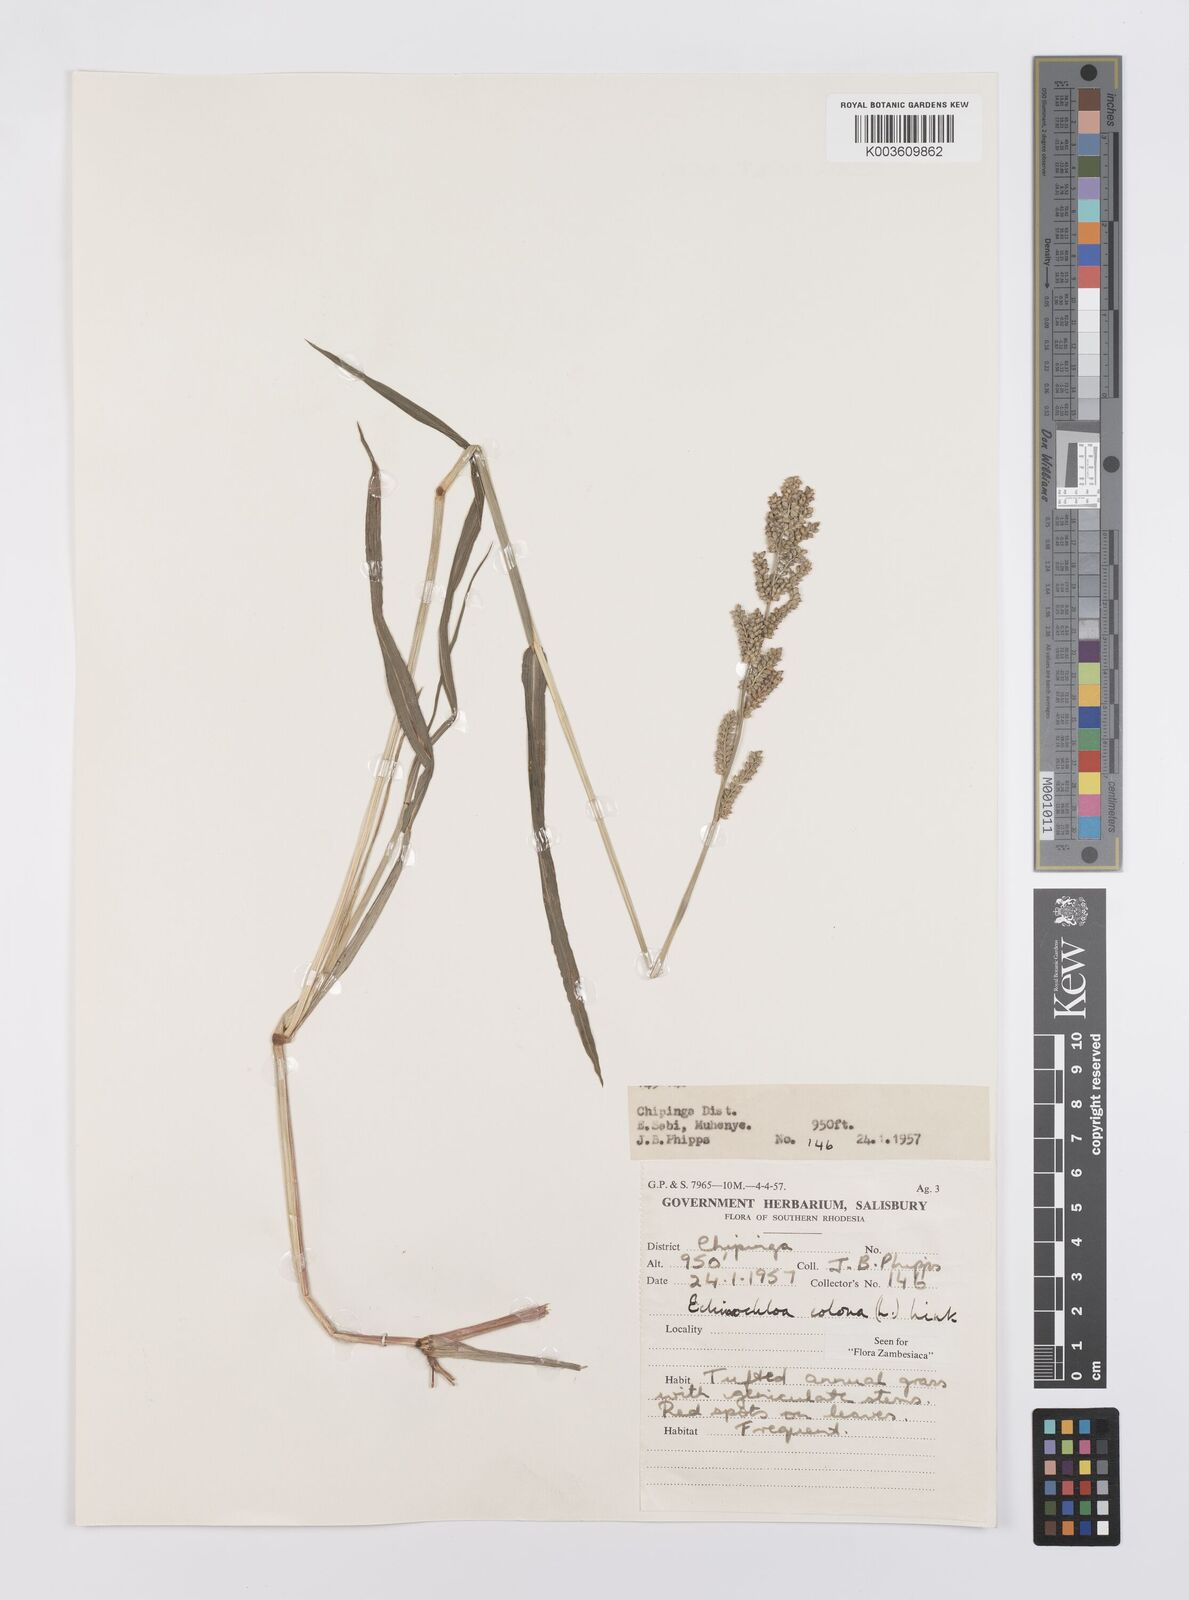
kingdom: Plantae
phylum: Tracheophyta
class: Liliopsida
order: Poales
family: Poaceae
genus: Echinochloa
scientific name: Echinochloa colonum
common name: Jungle rice
